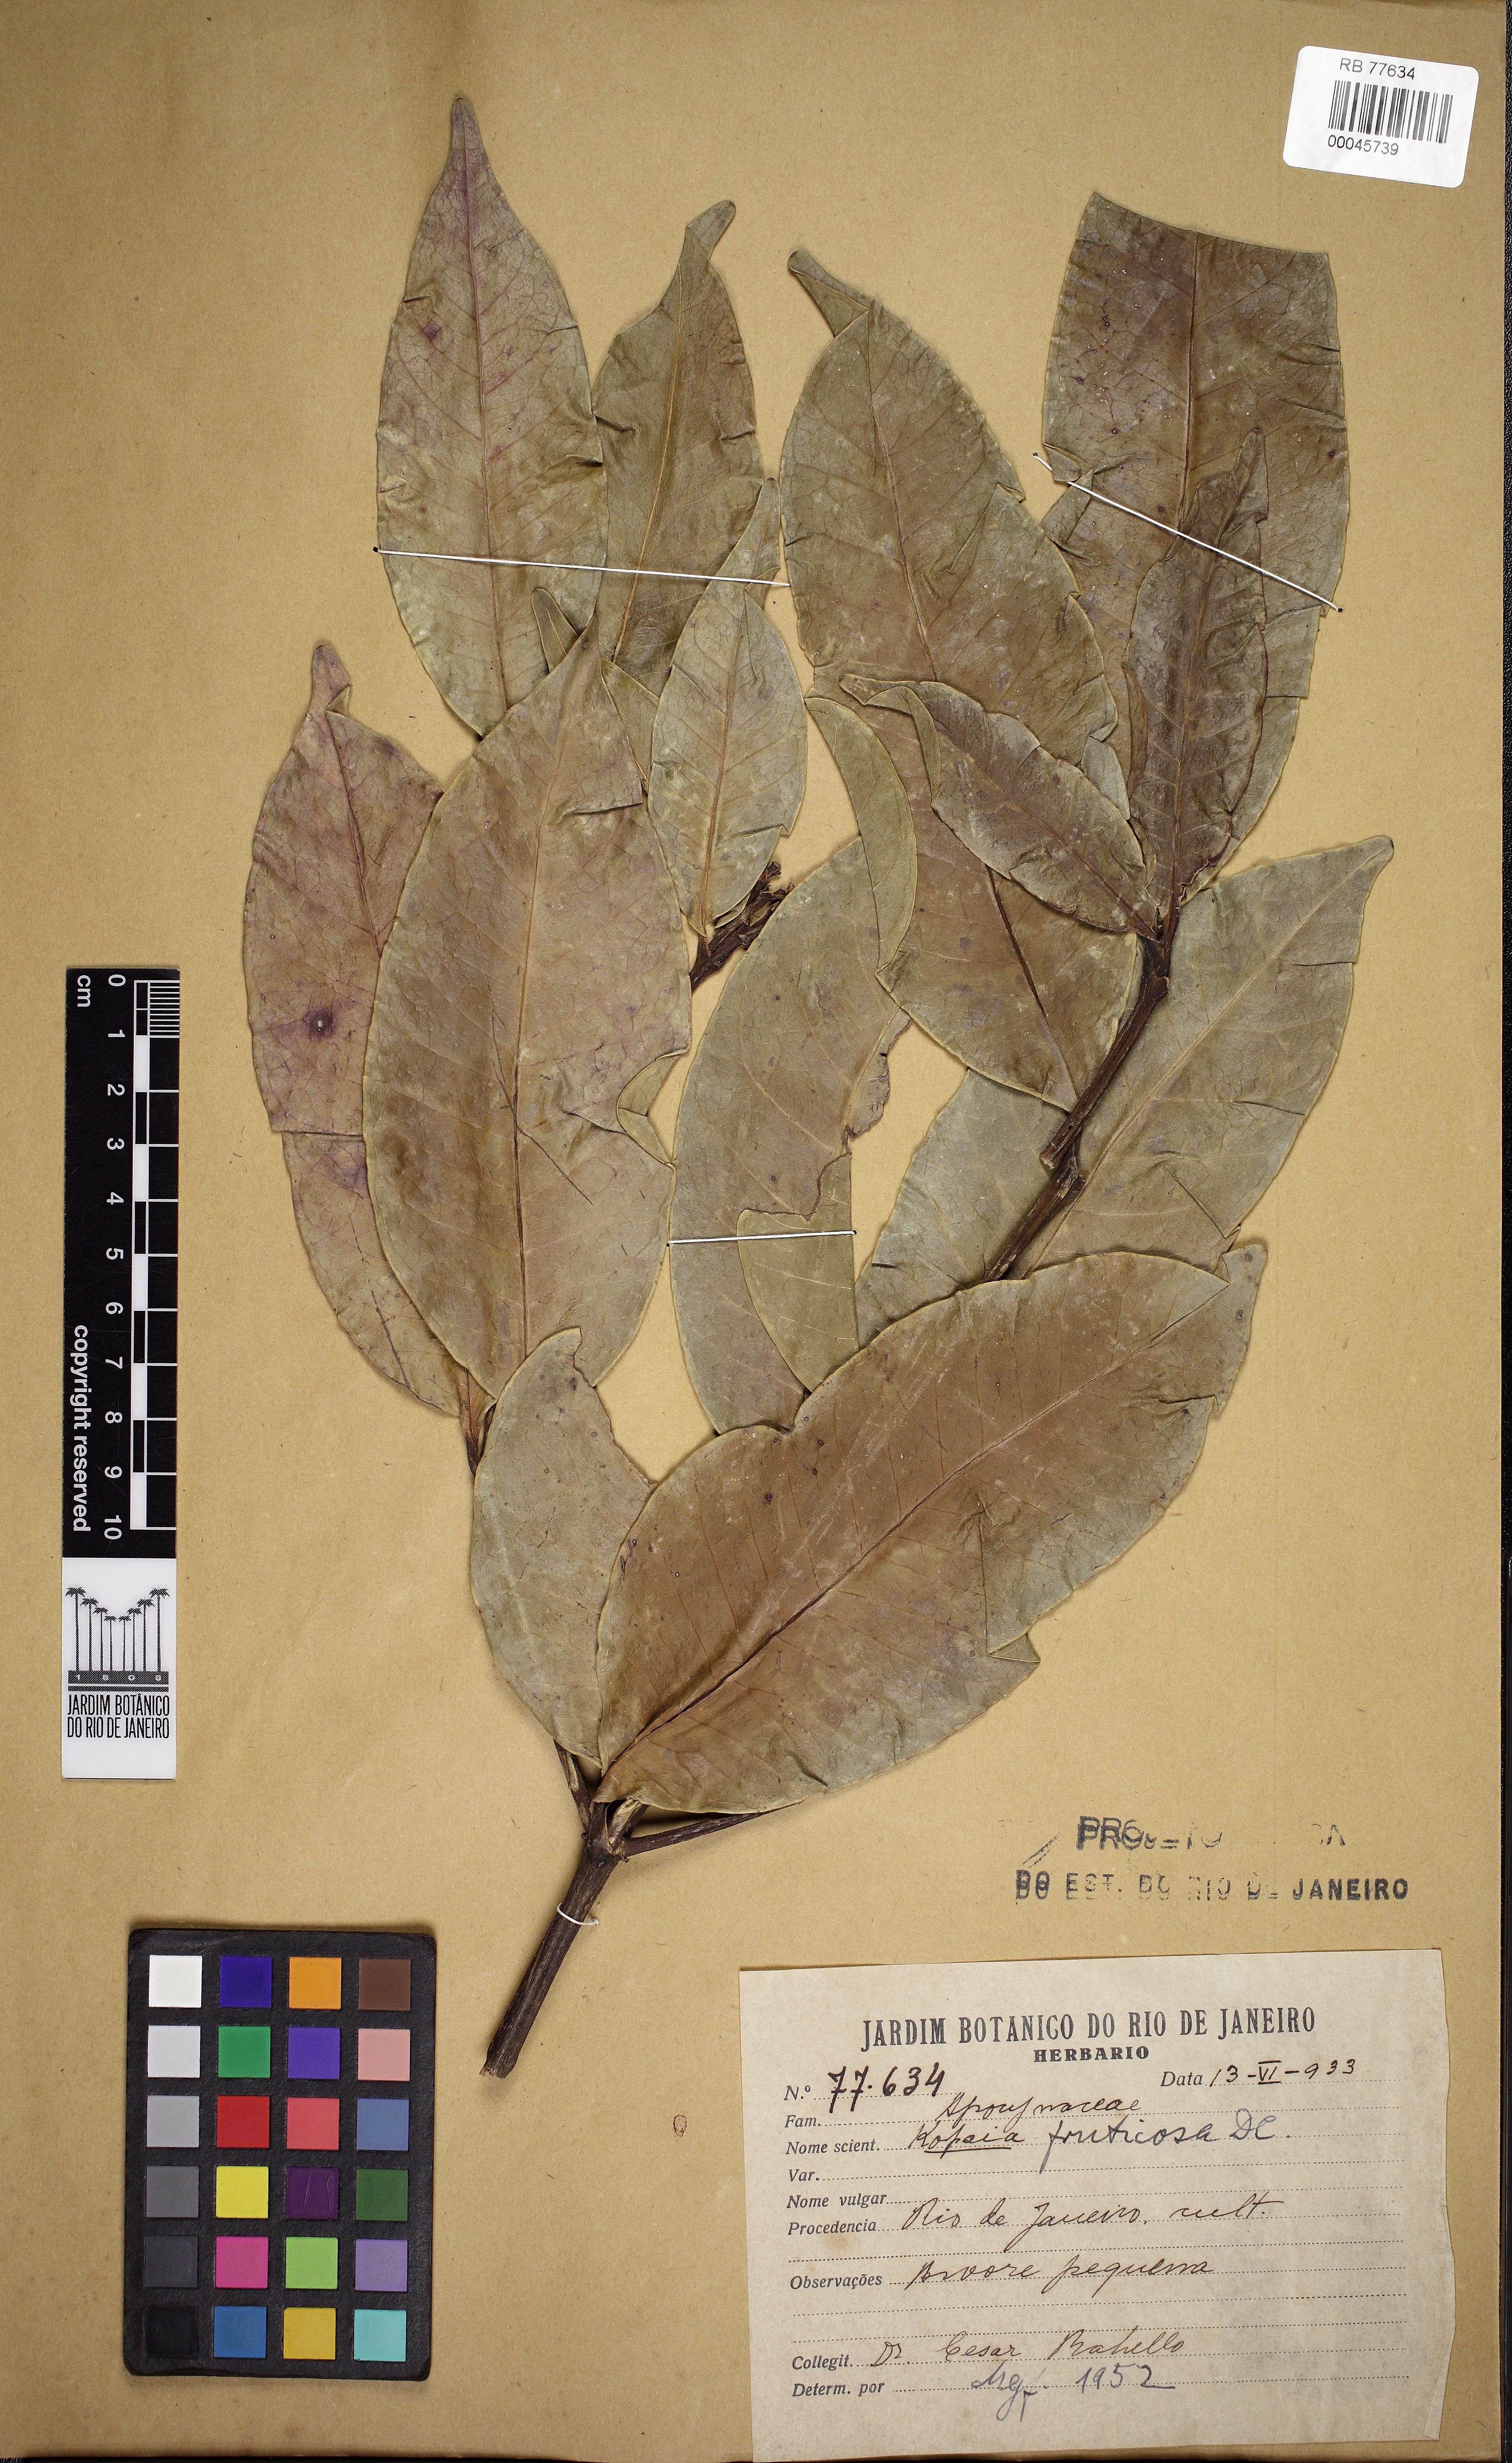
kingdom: Plantae
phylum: Tracheophyta
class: Magnoliopsida
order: Gentianales
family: Apocynaceae
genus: Kopsia
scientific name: Kopsia fruticosa
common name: Shrub-vinca
